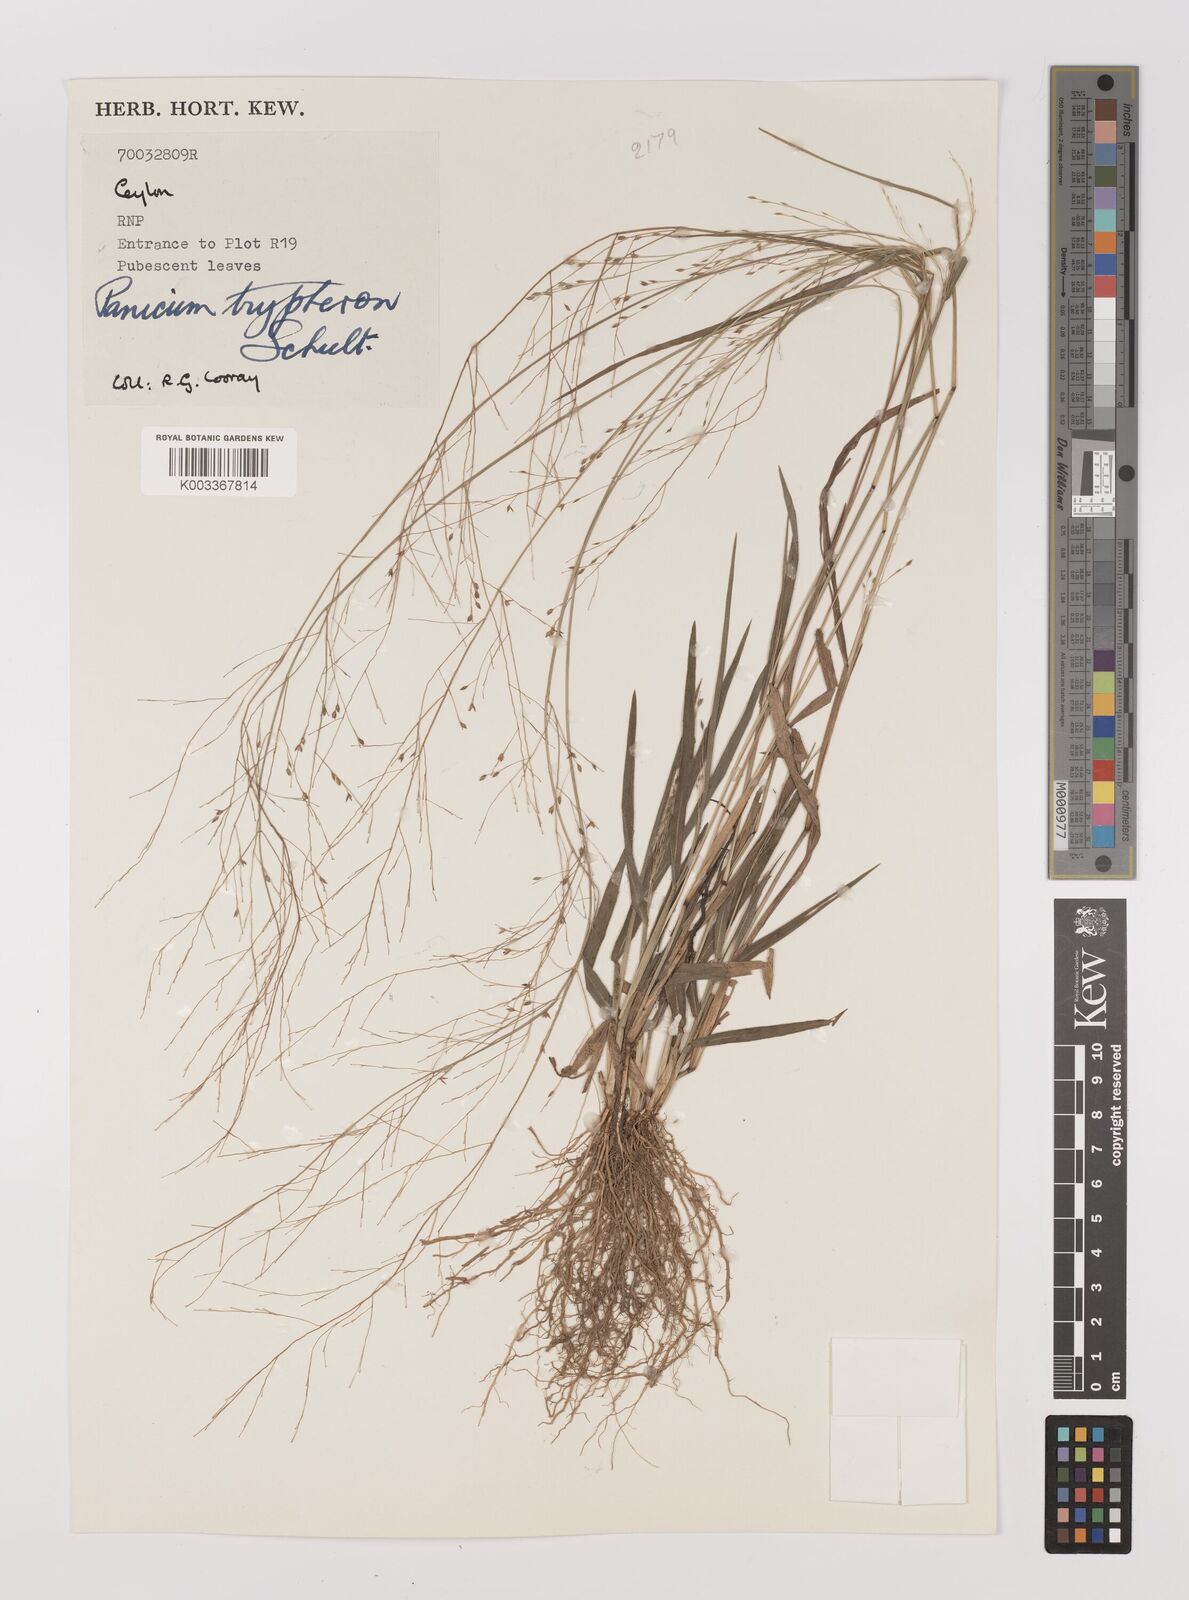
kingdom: Plantae
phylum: Tracheophyta
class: Liliopsida
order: Poales
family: Poaceae
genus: Panicum
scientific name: Panicum curviflorum
